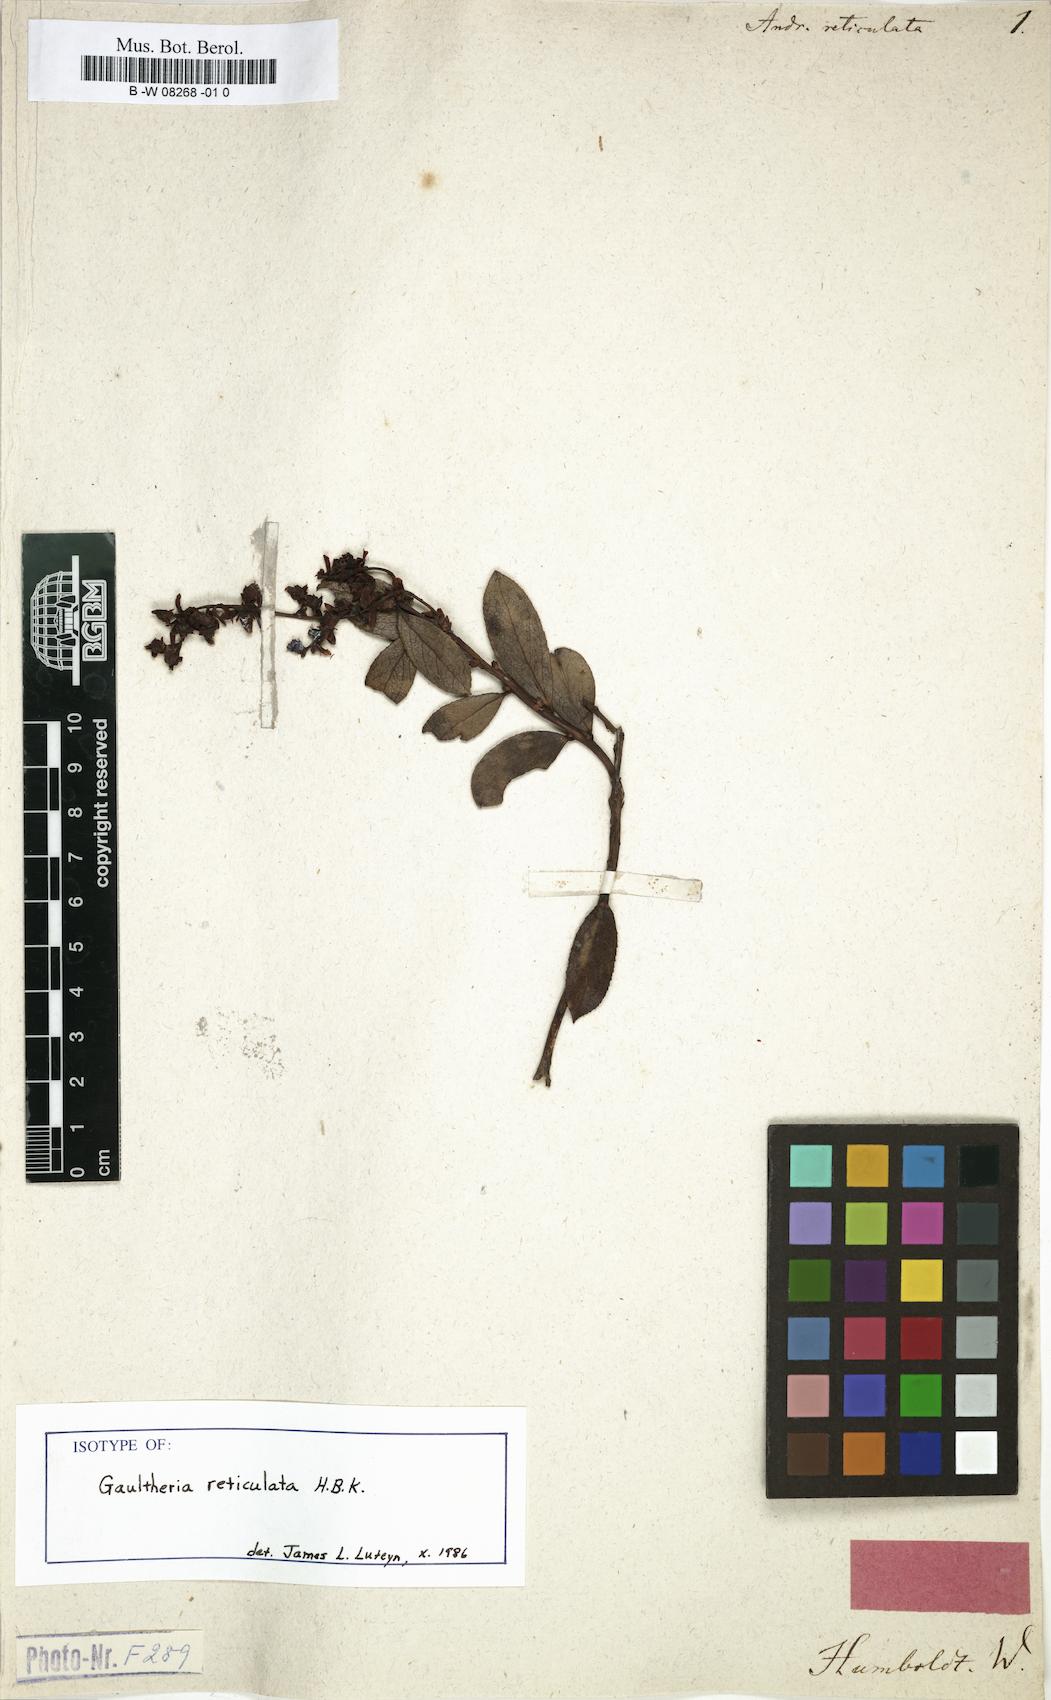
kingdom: Plantae
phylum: Tracheophyta
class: Magnoliopsida
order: Ericales
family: Ericaceae
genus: Andromeda
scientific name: Andromeda reticulata
